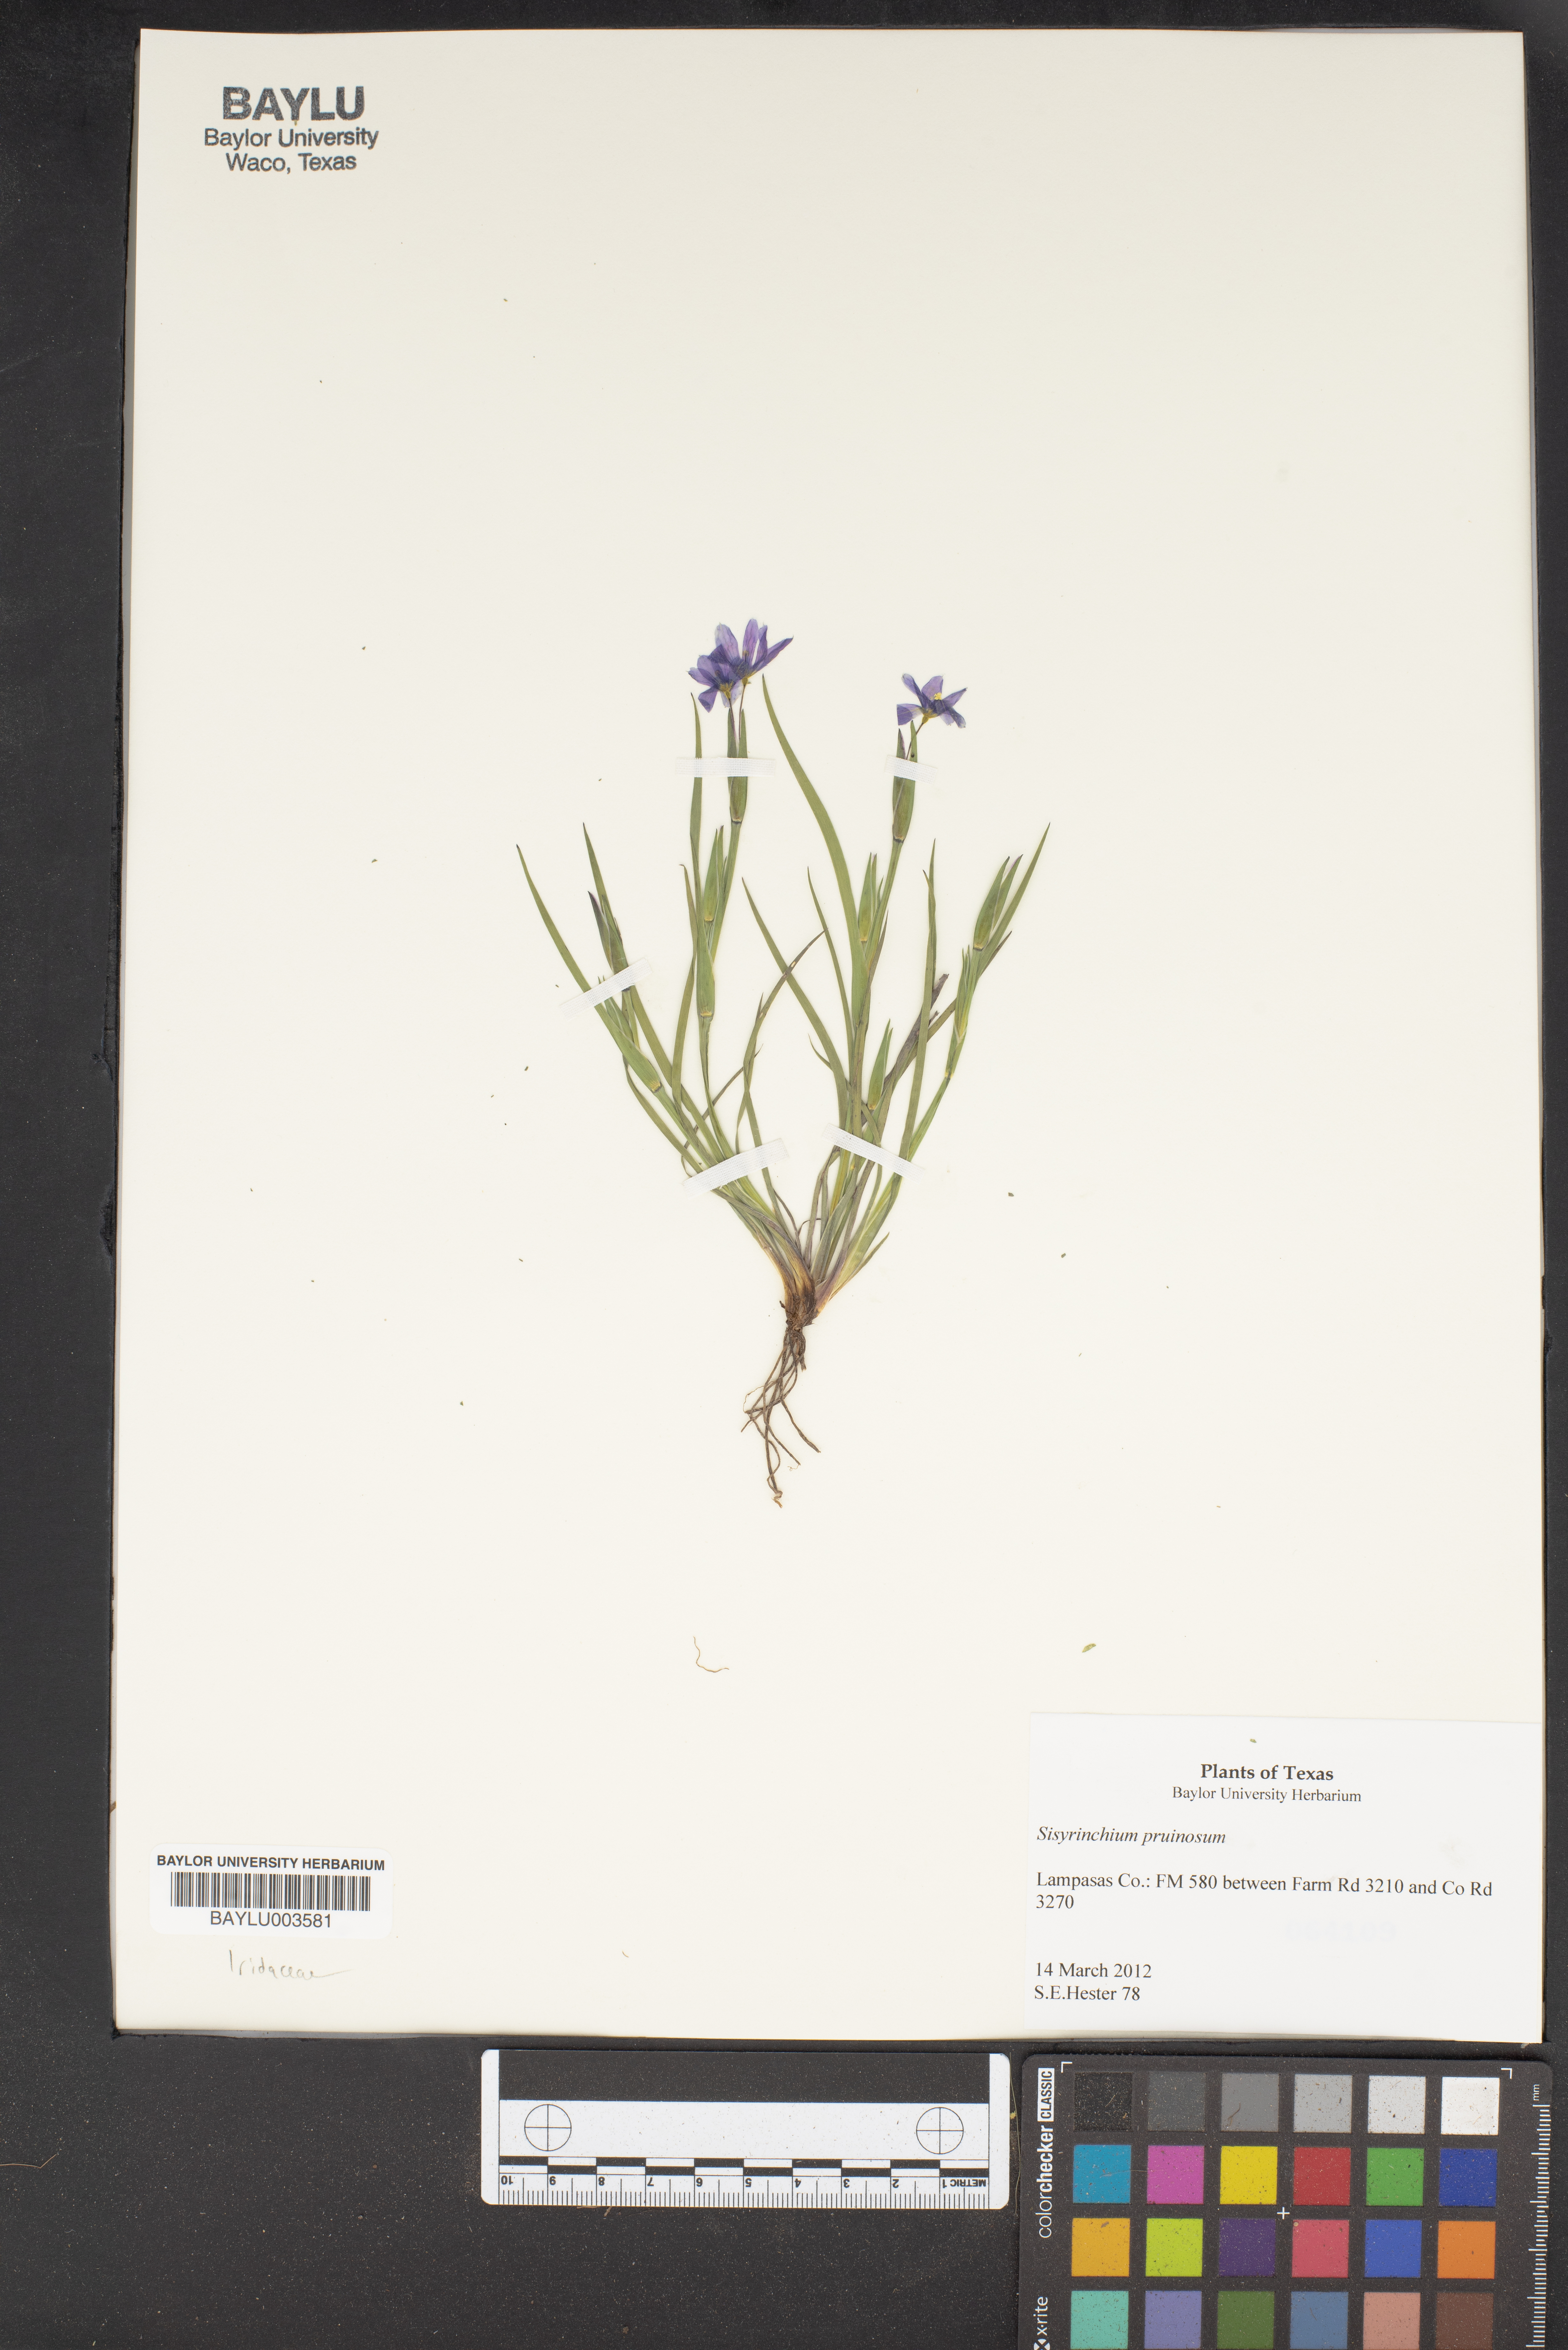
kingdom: Plantae
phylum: Tracheophyta
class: Liliopsida
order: Asparagales
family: Iridaceae
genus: Sisyrinchium
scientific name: Sisyrinchium pruinosum
